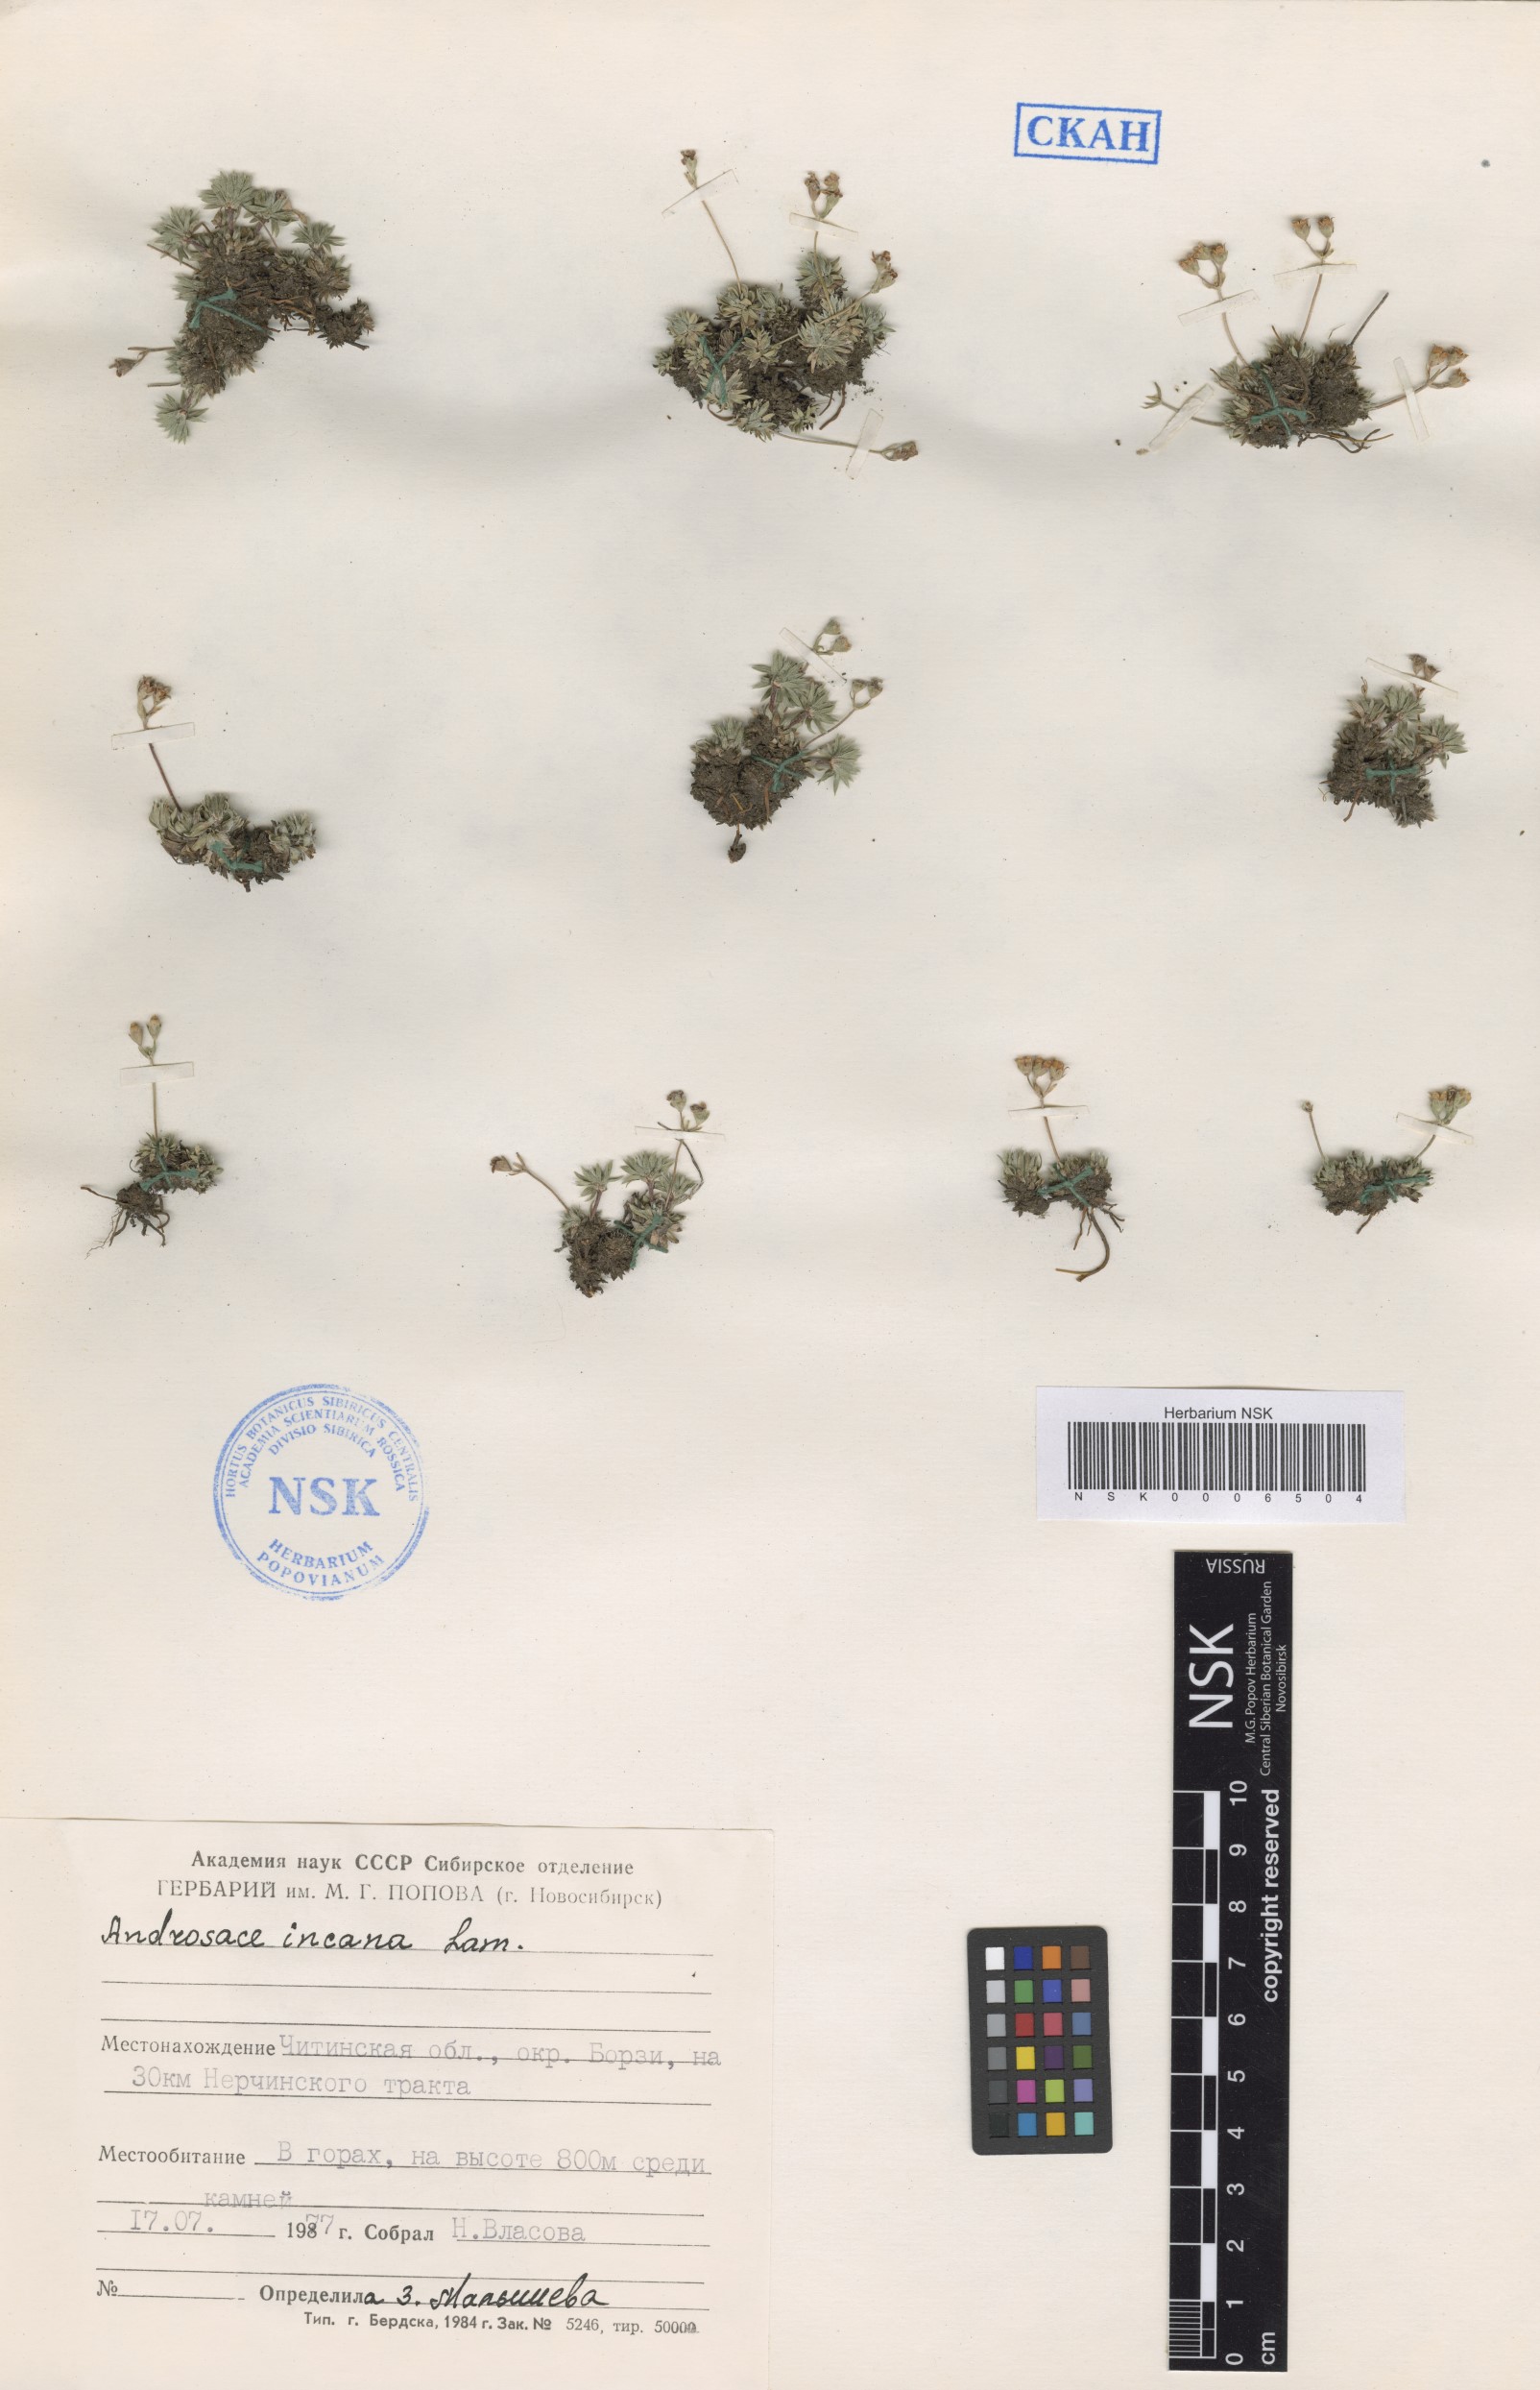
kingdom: Plantae
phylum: Tracheophyta
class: Magnoliopsida
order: Ericales
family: Primulaceae
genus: Androsace
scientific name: Androsace incana
